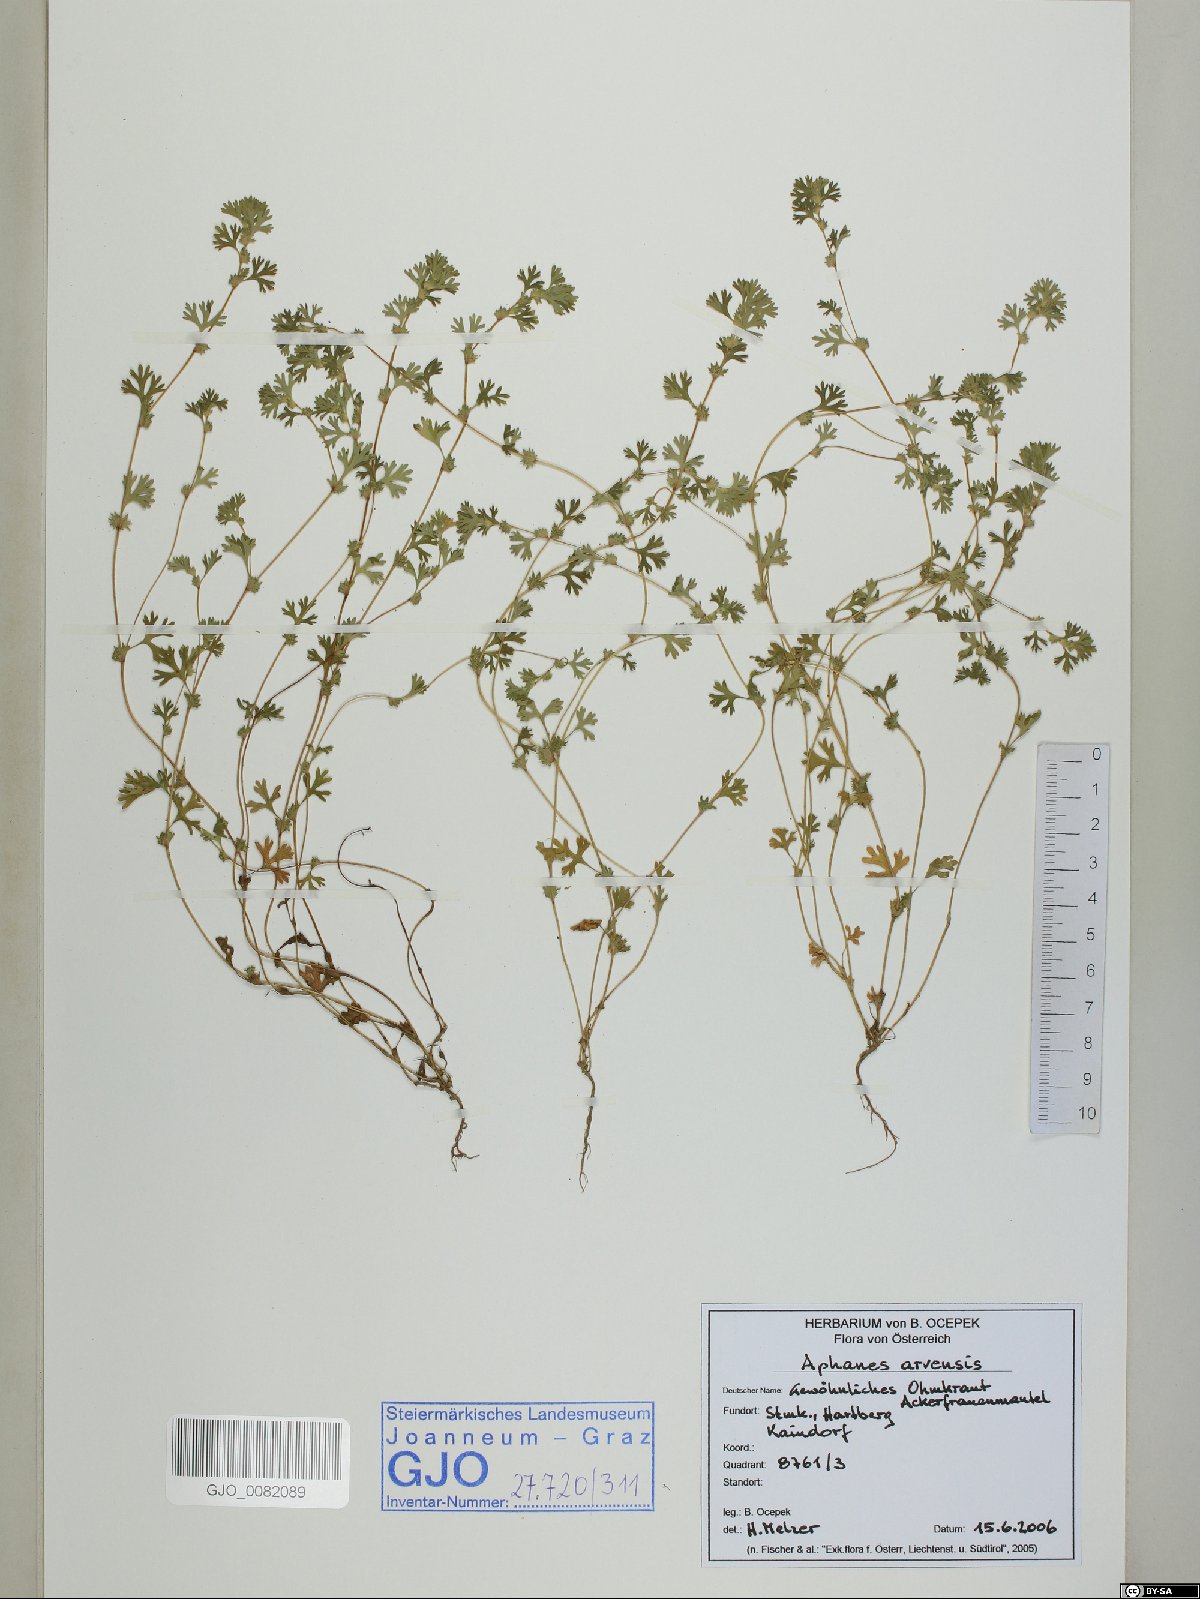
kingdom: Plantae
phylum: Tracheophyta
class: Magnoliopsida
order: Rosales
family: Rosaceae
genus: Aphanes
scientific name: Aphanes arvensis
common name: Parsley-piert
